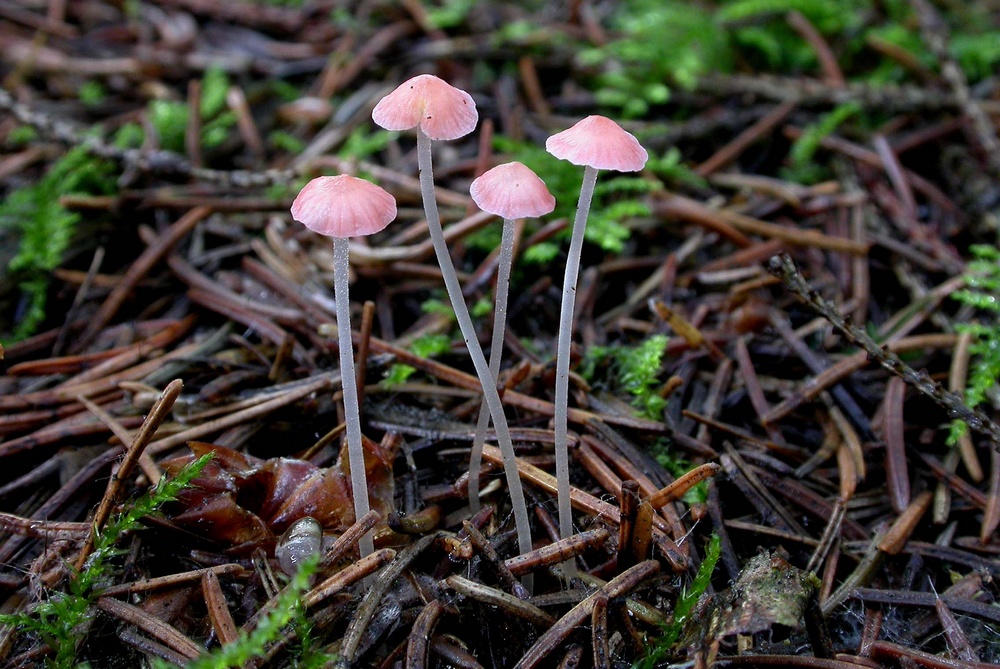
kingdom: Fungi
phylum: Basidiomycota
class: Agaricomycetes
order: Agaricales
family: Mycenaceae
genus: Atheniella
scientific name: Atheniella
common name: huesvamp
